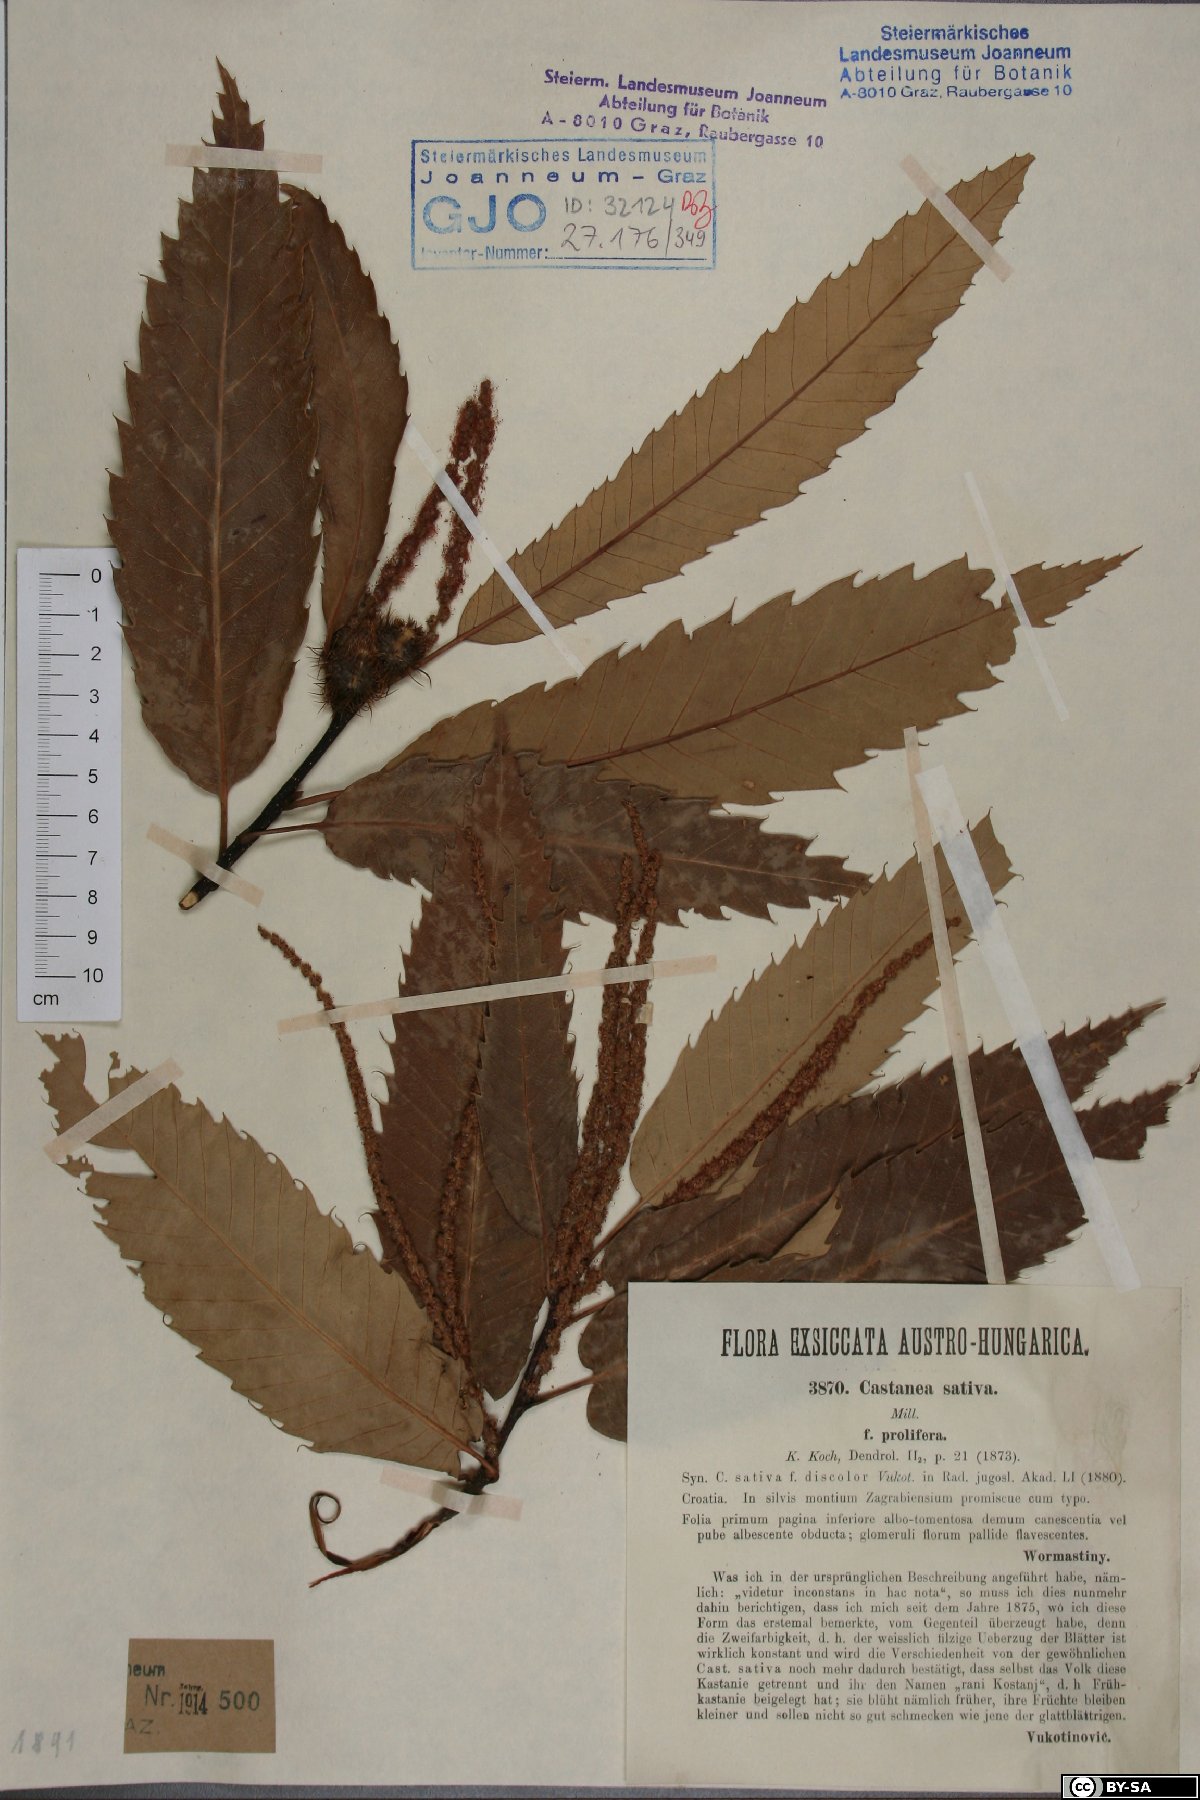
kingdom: Plantae
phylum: Tracheophyta
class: Magnoliopsida
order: Fagales
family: Fagaceae
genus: Castanea
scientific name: Castanea sativa
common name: Sweet chestnut
